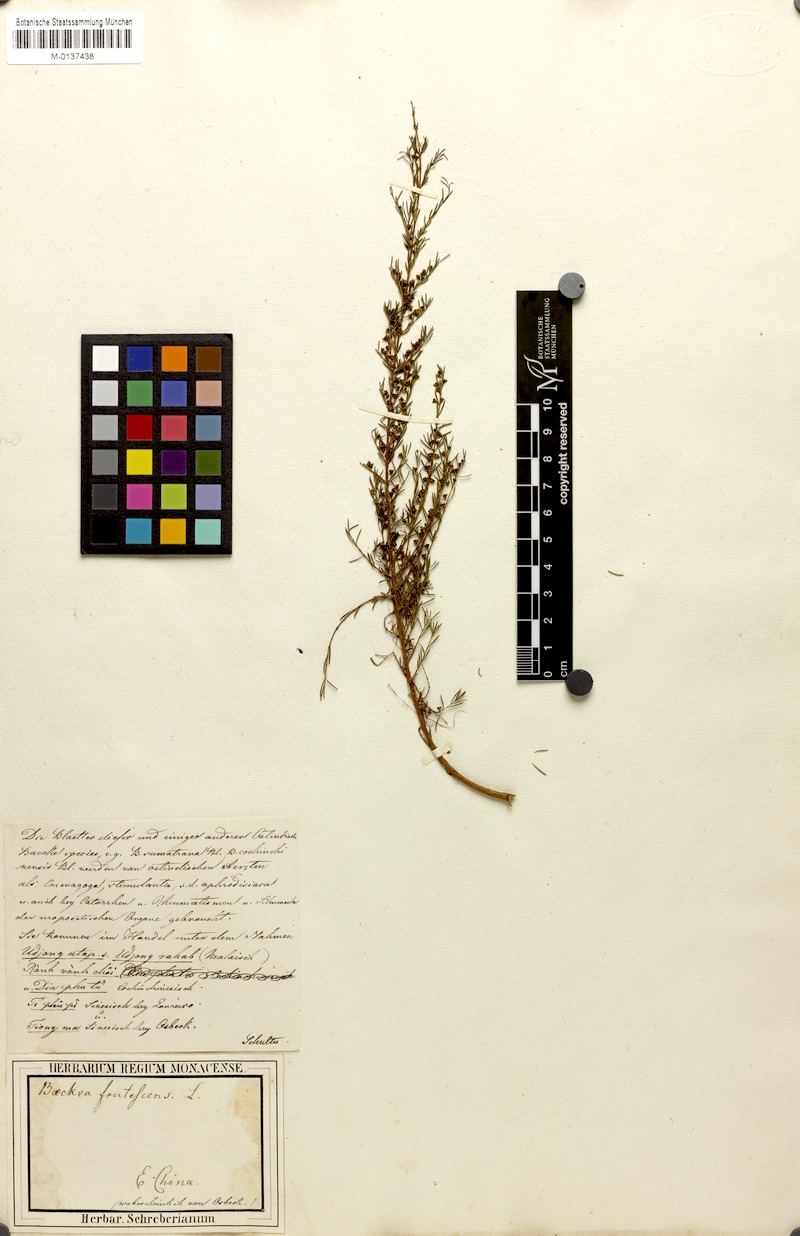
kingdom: Plantae
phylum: Tracheophyta
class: Magnoliopsida
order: Myrtales
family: Myrtaceae
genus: Baeckea
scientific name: Baeckea frutescens
